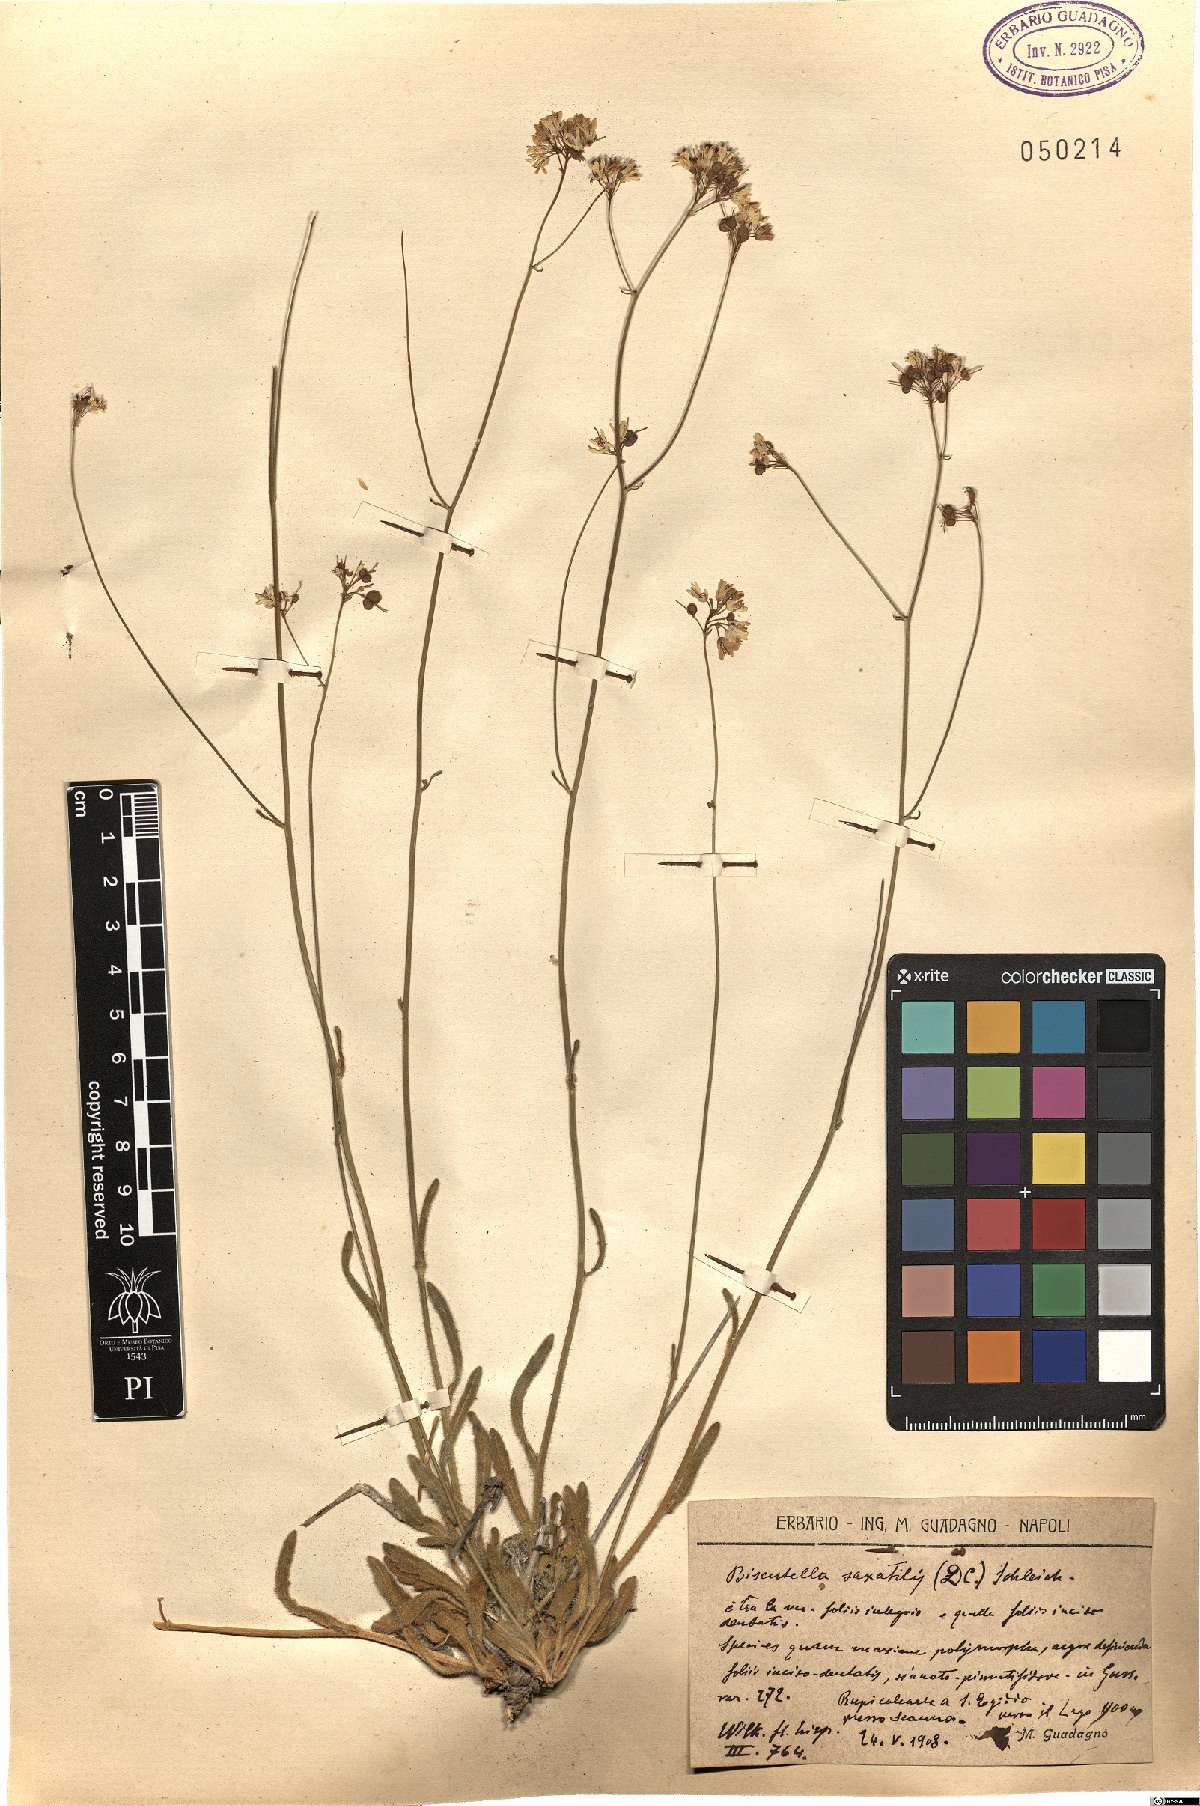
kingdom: Plantae
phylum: Tracheophyta
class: Magnoliopsida
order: Brassicales
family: Brassicaceae
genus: Biscutella
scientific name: Biscutella laevigata
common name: Buckler mustard
